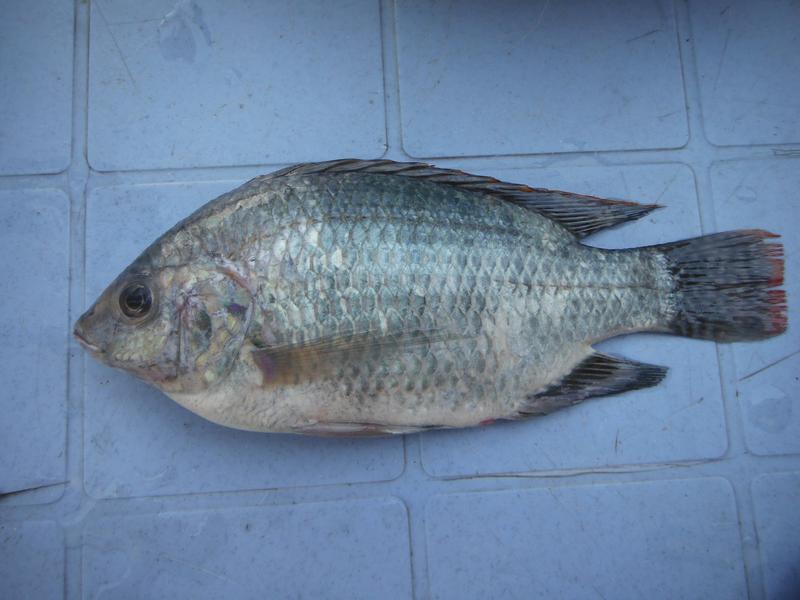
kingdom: Animalia
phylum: Chordata
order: Perciformes
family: Cichlidae
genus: Oreochromis
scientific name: Oreochromis esculentus
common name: Carp
